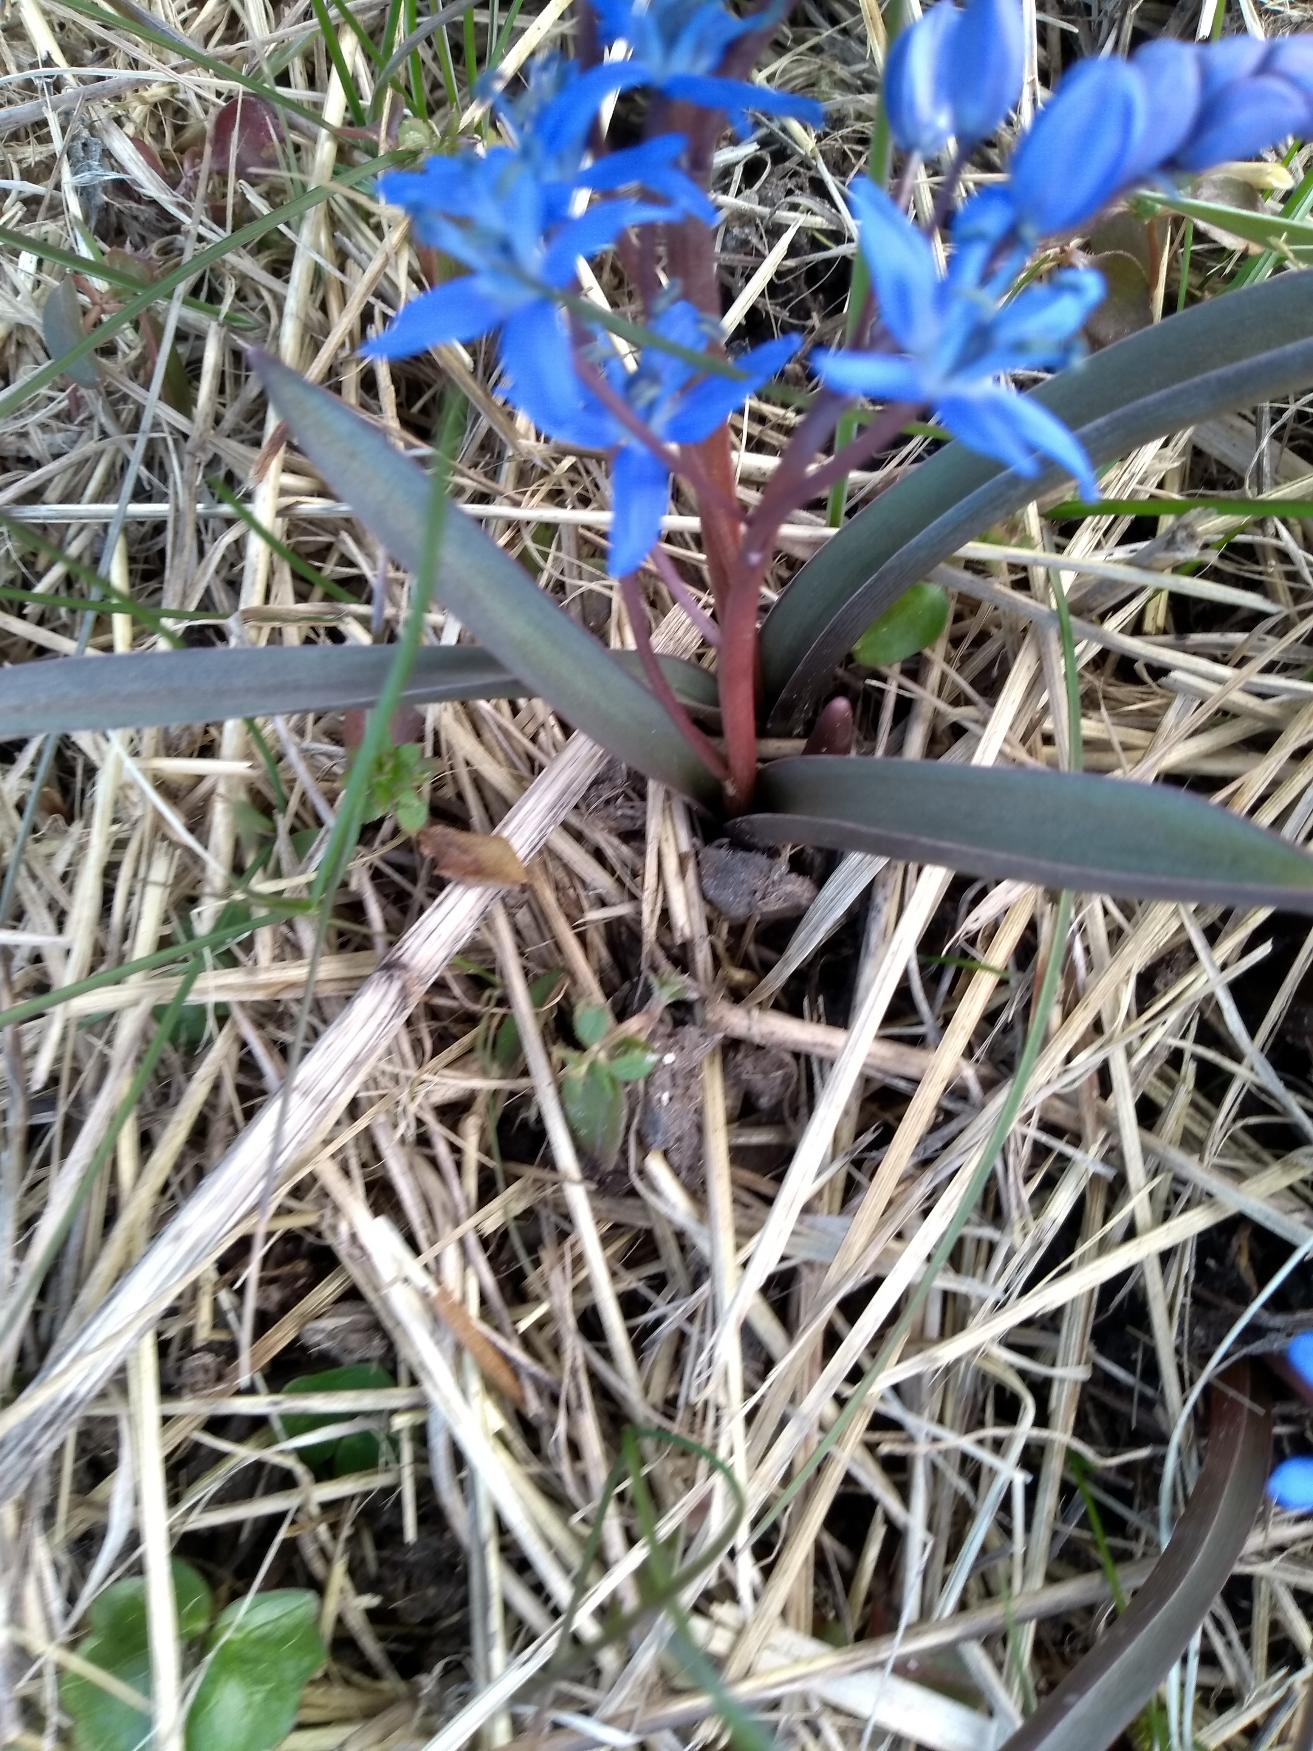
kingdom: Plantae
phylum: Tracheophyta
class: Liliopsida
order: Asparagales
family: Asparagaceae
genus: Scilla
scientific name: Scilla bifolia
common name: Tobladet skilla
